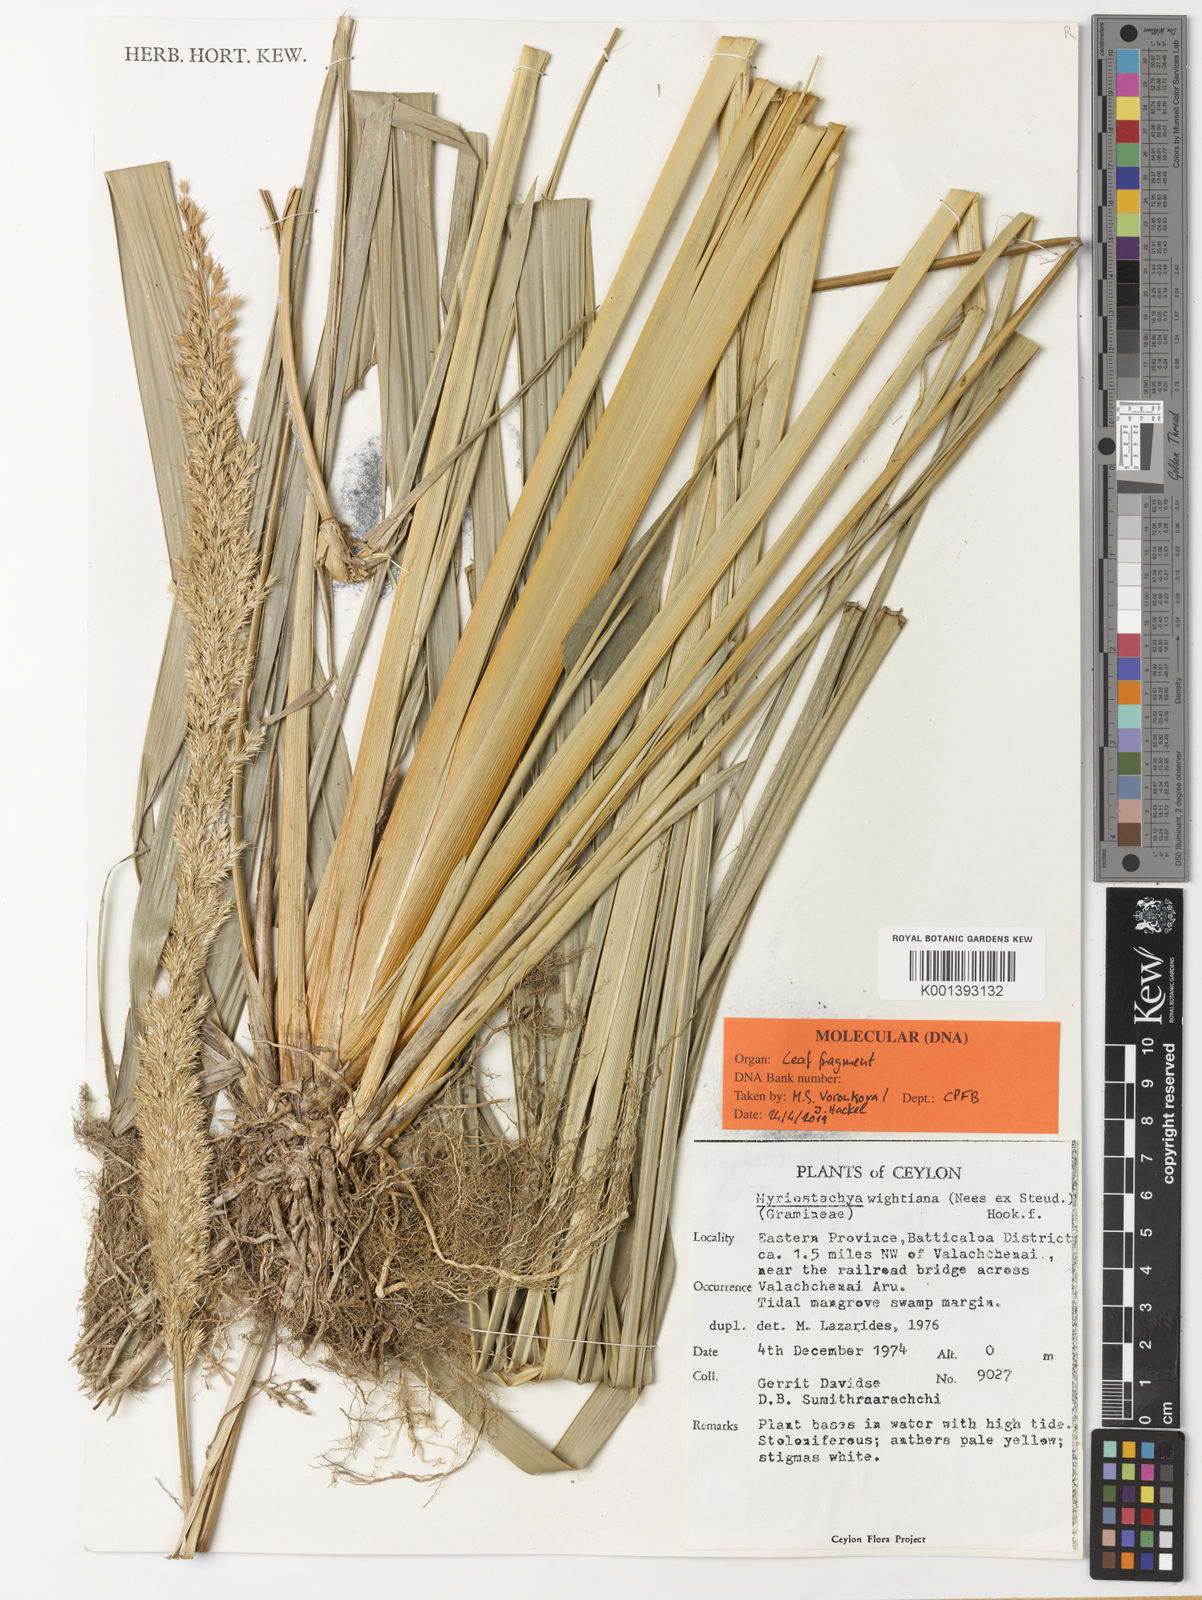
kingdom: Plantae
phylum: Tracheophyta
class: Liliopsida
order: Poales
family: Poaceae
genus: Myriostachya
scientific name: Myriostachya wightiana
